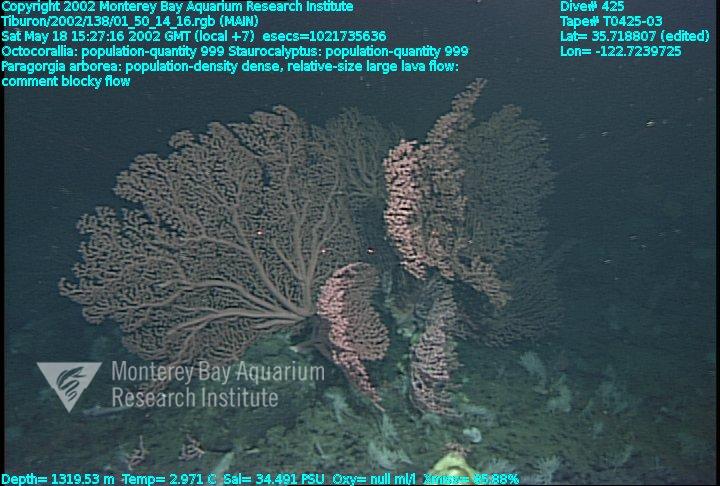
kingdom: Animalia
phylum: Porifera
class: Hexactinellida
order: Lyssacinosida
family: Rossellidae
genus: Staurocalyptus
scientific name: Staurocalyptus
